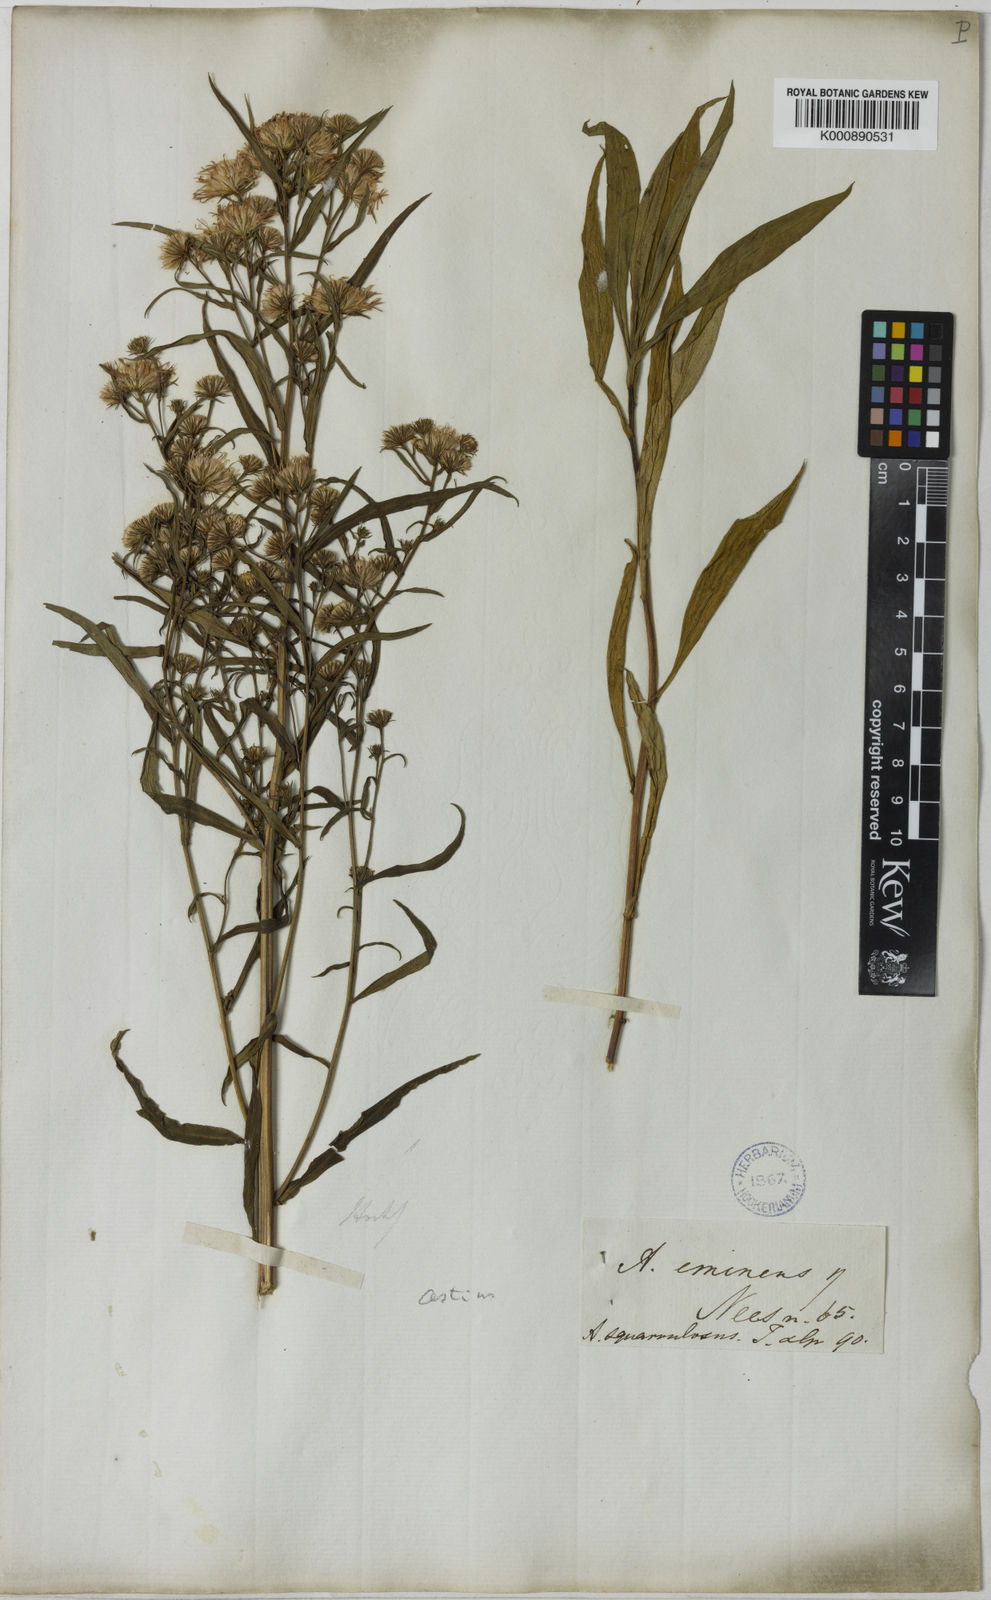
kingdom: Plantae
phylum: Tracheophyta
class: Magnoliopsida
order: Asterales
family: Asteraceae
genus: Aster
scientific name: Aster
